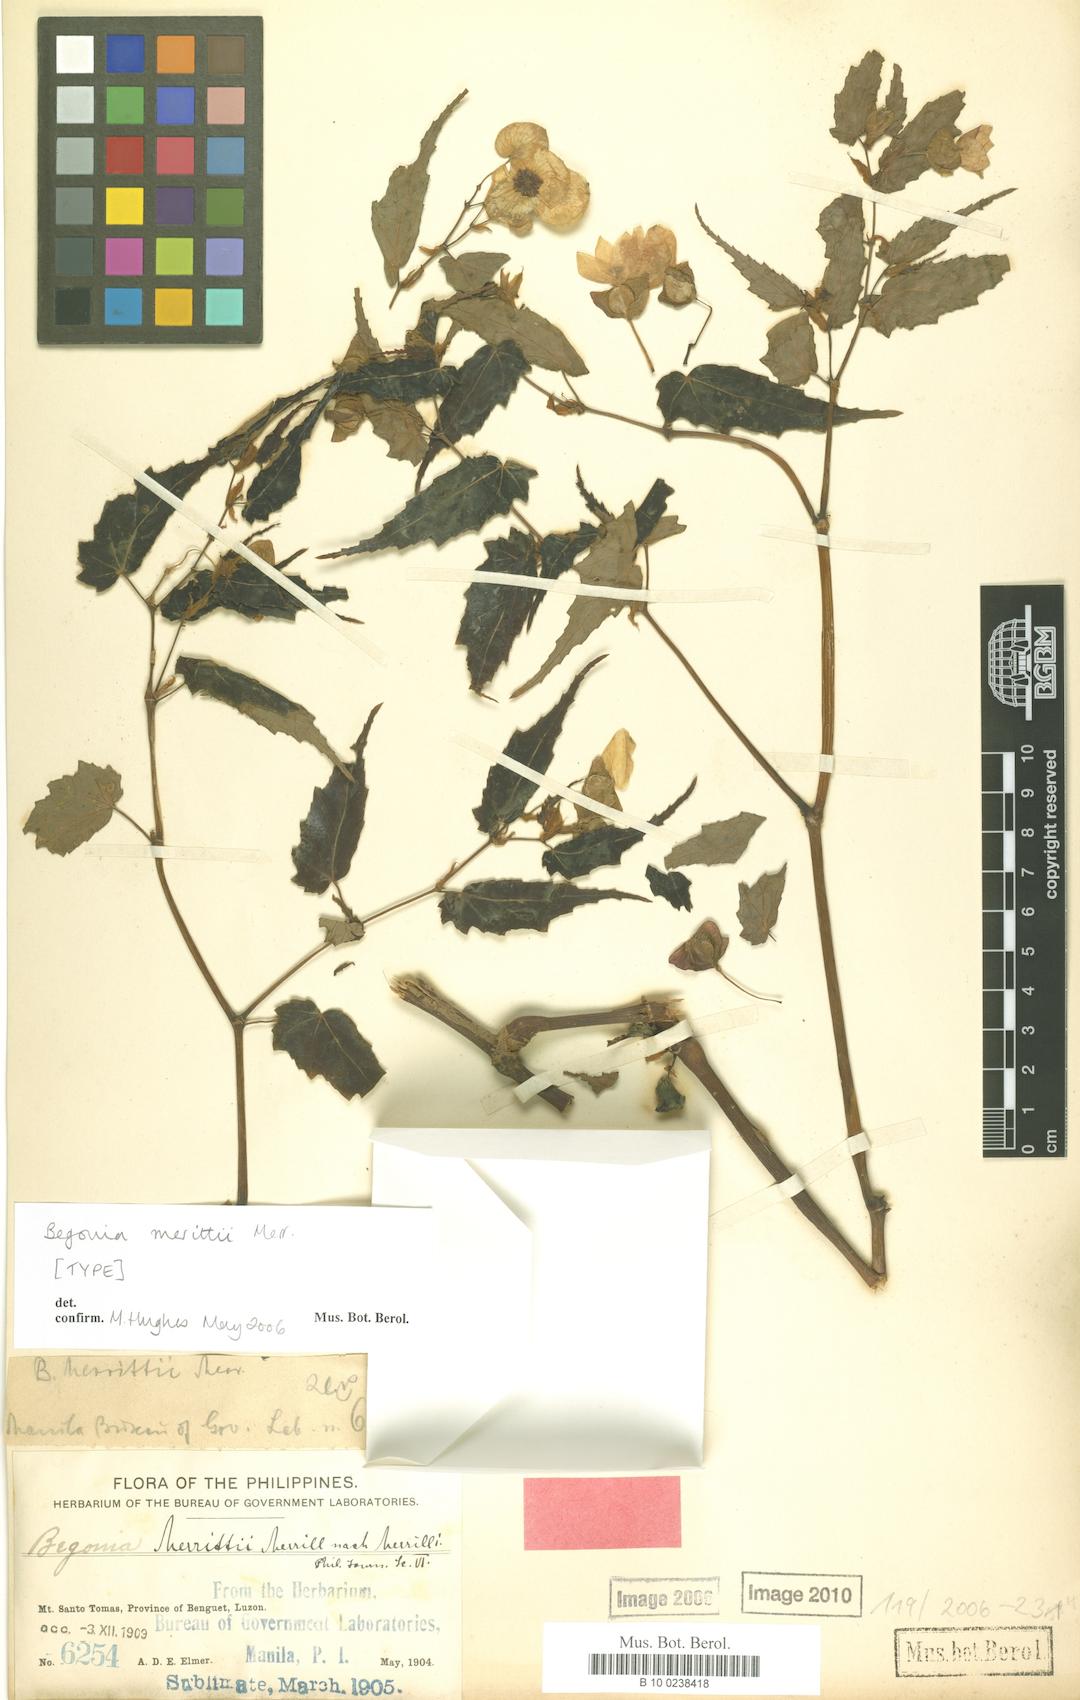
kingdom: Plantae
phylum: Tracheophyta
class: Magnoliopsida
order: Cucurbitales
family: Begoniaceae
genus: Begonia
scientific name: Begonia merrittii
